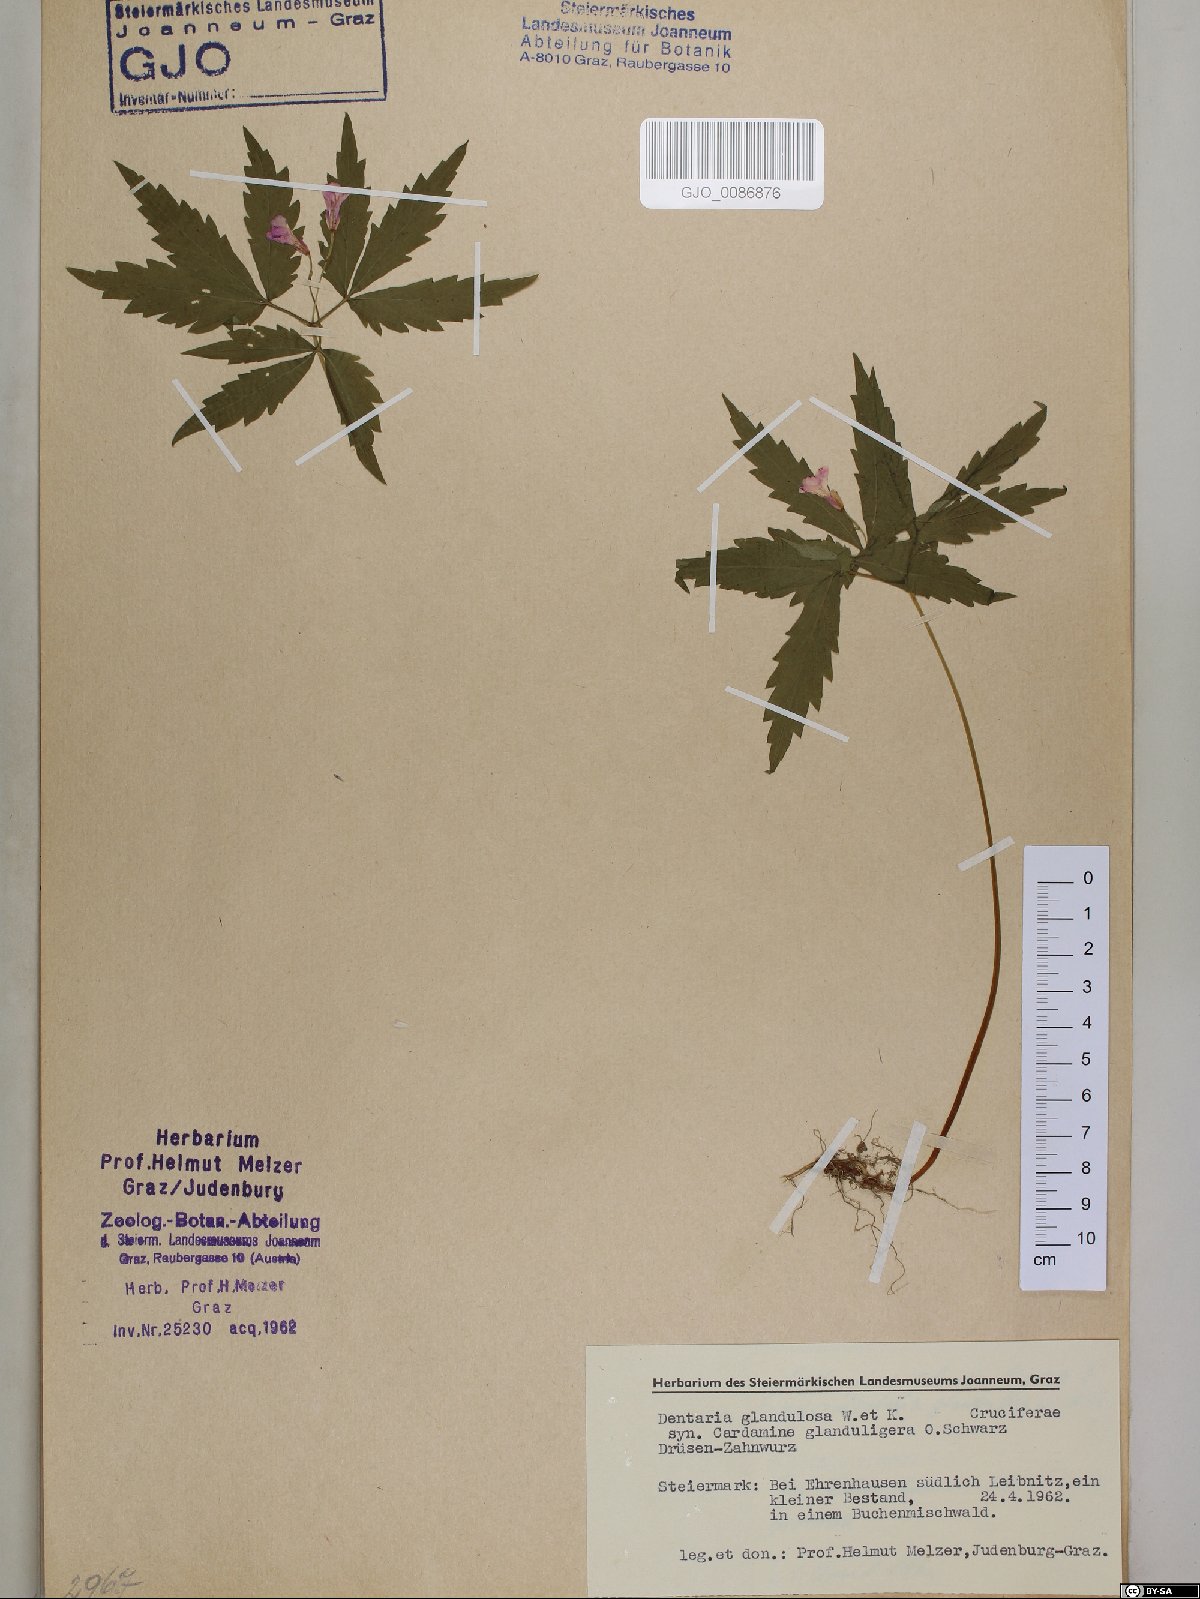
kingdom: Plantae
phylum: Tracheophyta
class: Magnoliopsida
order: Brassicales
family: Brassicaceae
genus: Cardamine
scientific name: Cardamine glanduligera
